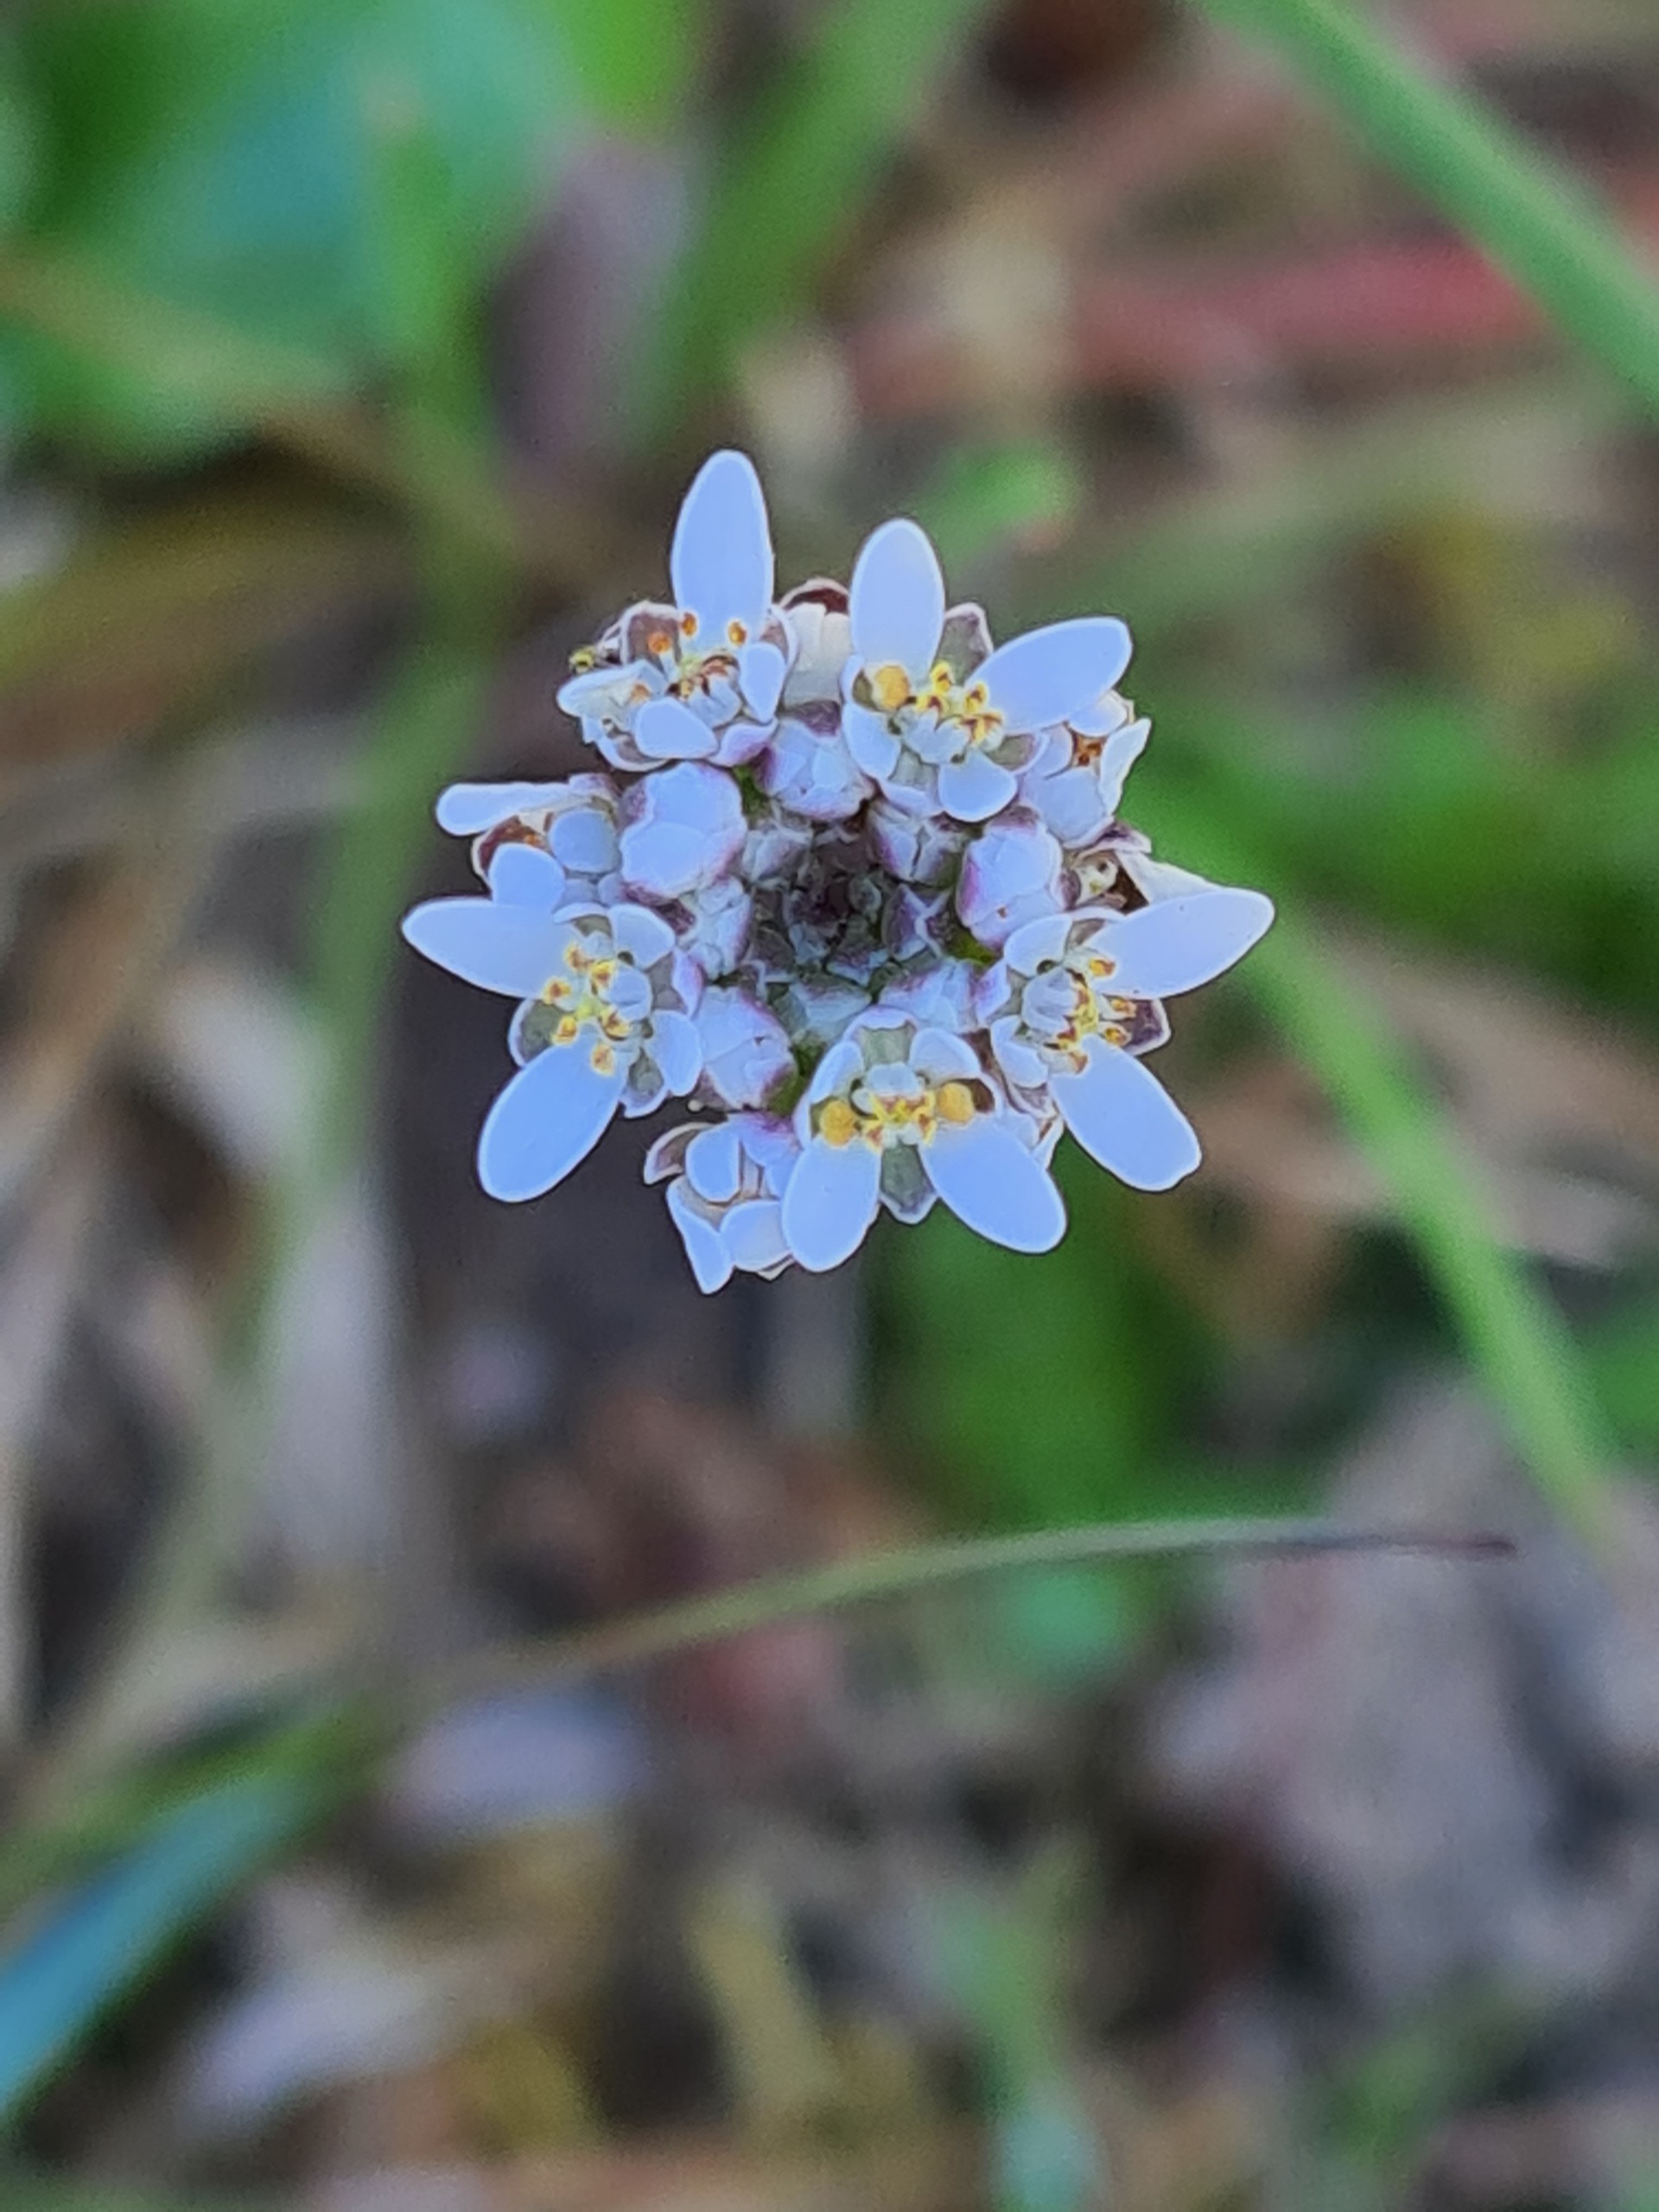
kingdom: Plantae
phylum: Tracheophyta
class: Magnoliopsida
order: Brassicales
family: Brassicaceae
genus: Teesdalia
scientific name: Teesdalia nudicaulis
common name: Flipkrave
